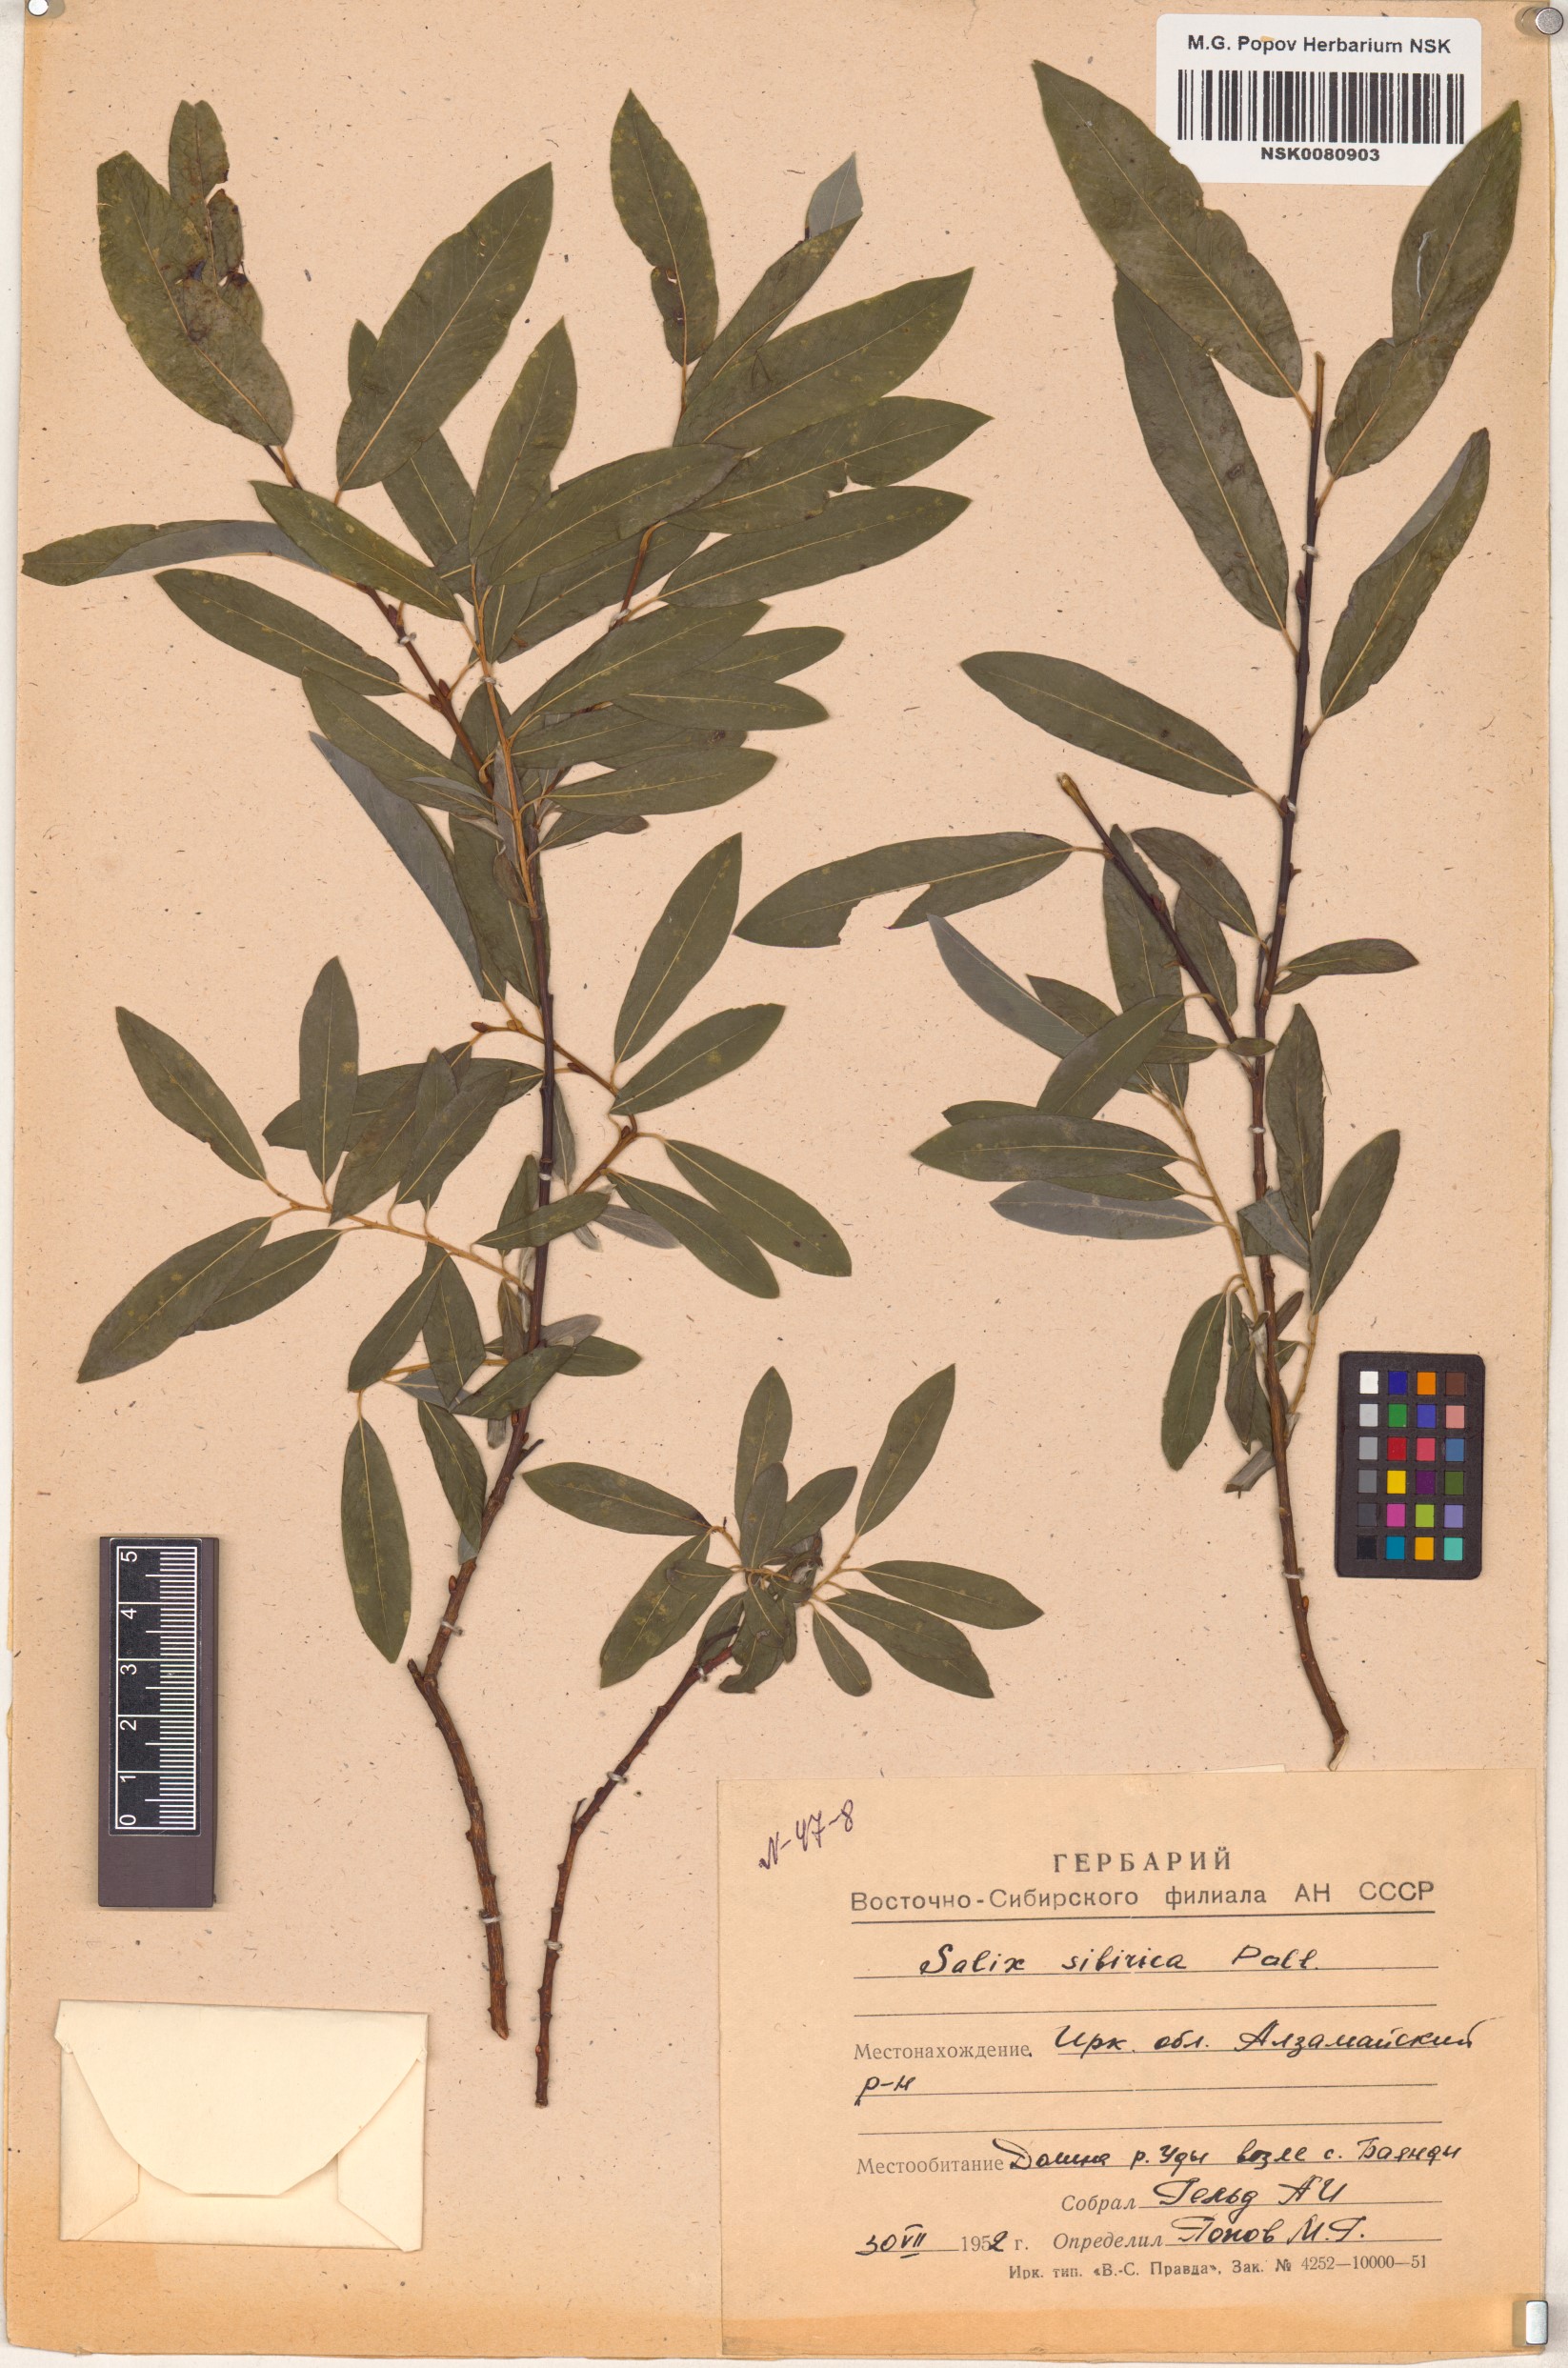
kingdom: Plantae
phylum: Tracheophyta
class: Magnoliopsida
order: Malpighiales
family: Salicaceae
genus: Salix
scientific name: Salix rosmarinifolia
